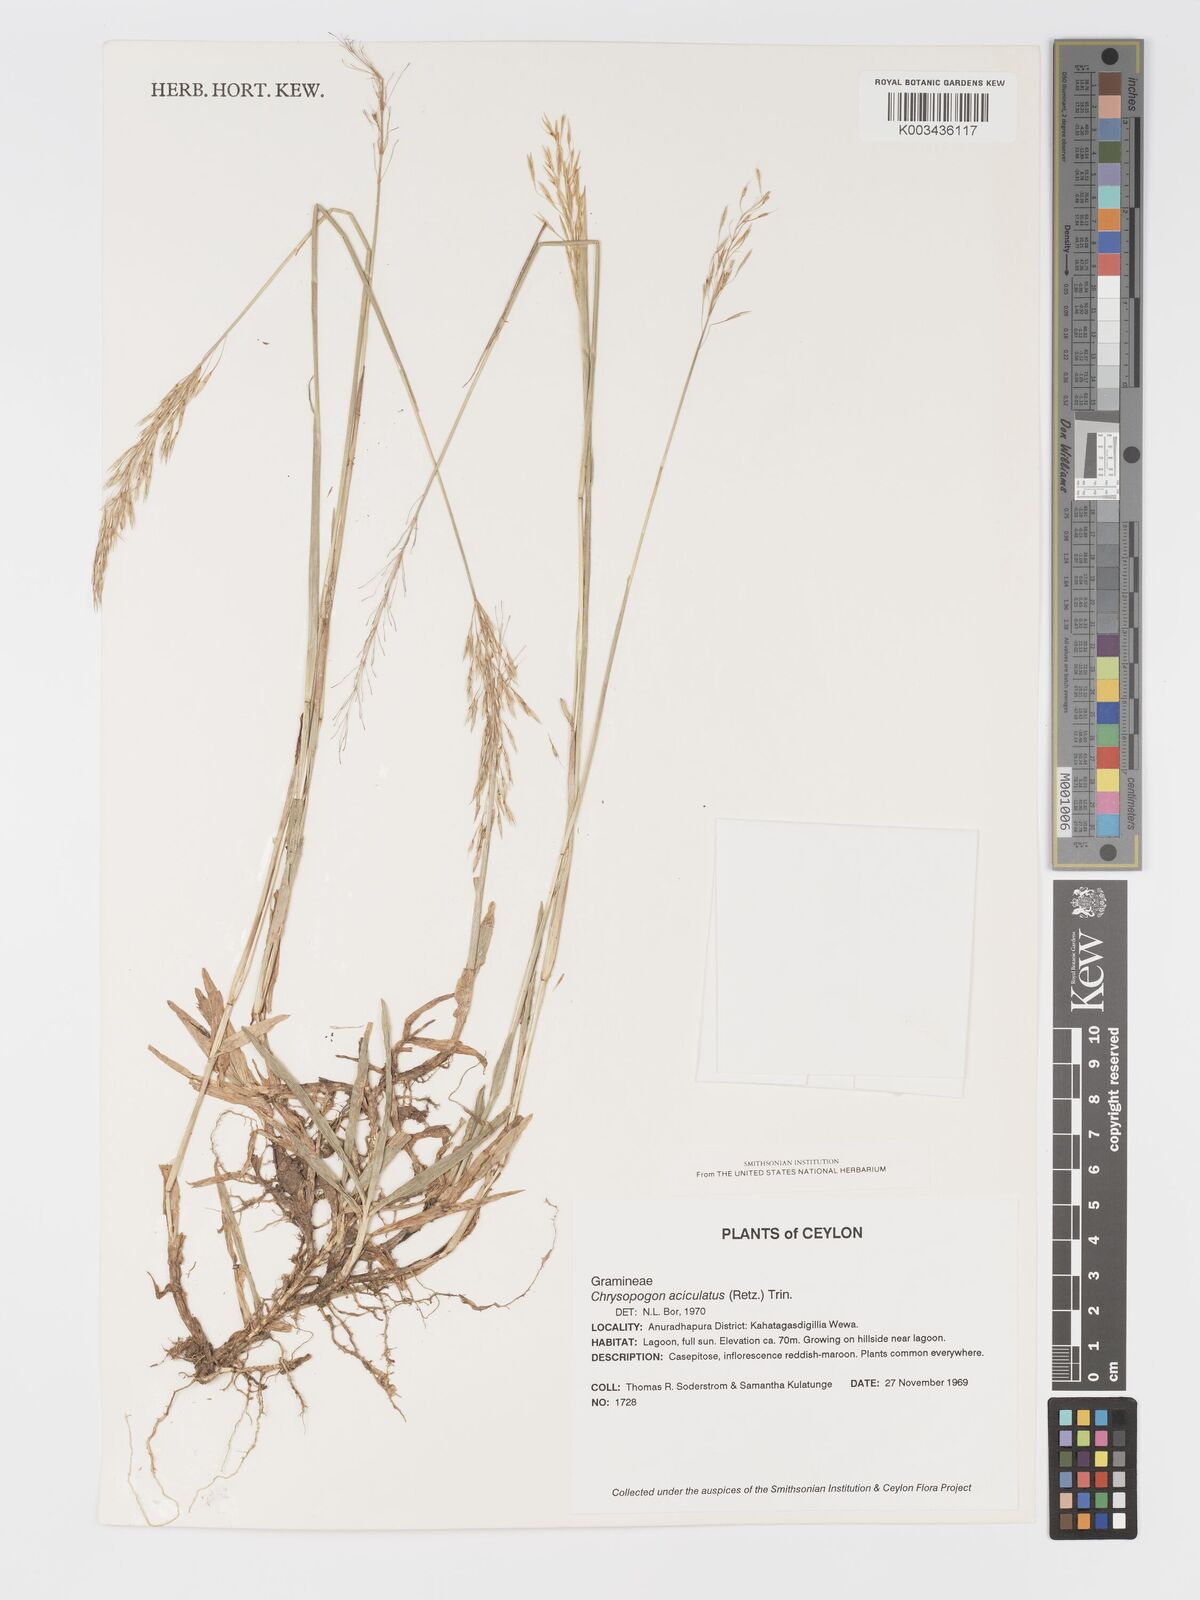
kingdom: Plantae
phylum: Tracheophyta
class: Liliopsida
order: Poales
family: Poaceae
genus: Chrysopogon
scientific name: Chrysopogon aciculatus
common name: Pilipiliula
